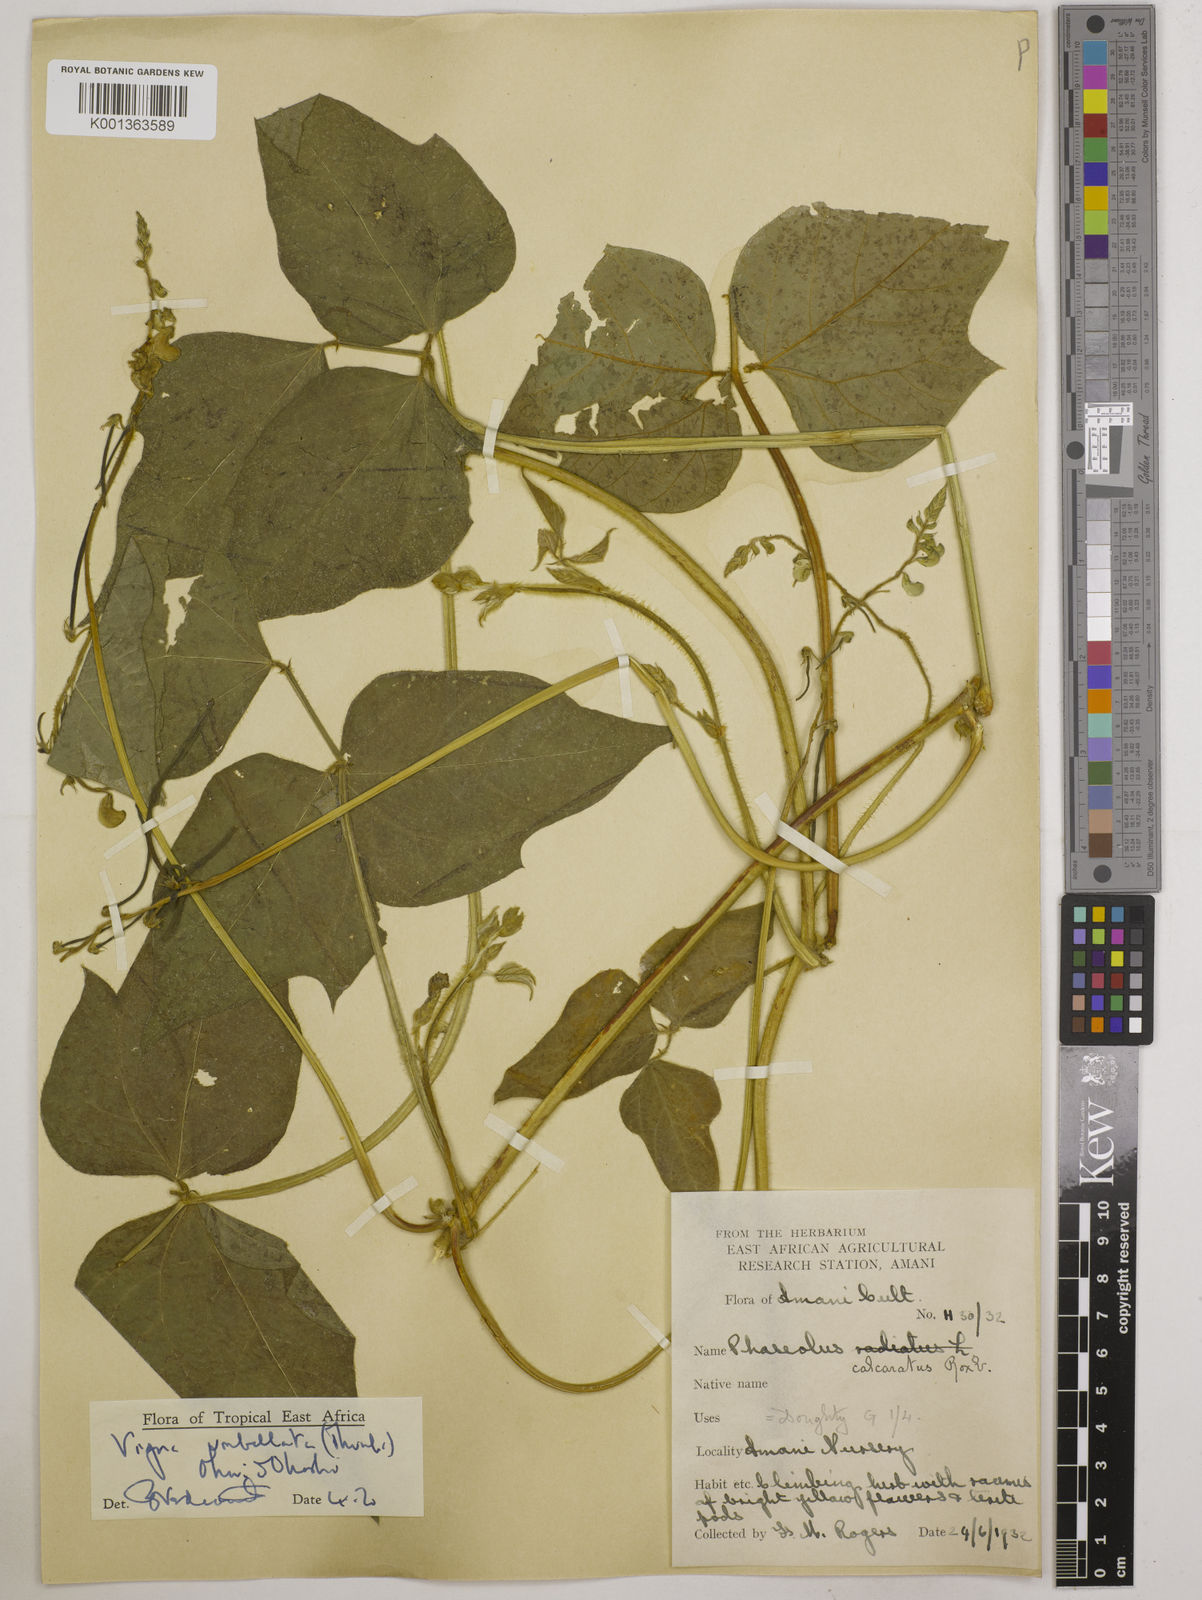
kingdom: Plantae
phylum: Tracheophyta
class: Magnoliopsida
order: Fabales
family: Fabaceae
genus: Vigna
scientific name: Vigna umbellata
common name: Oriental-bean
